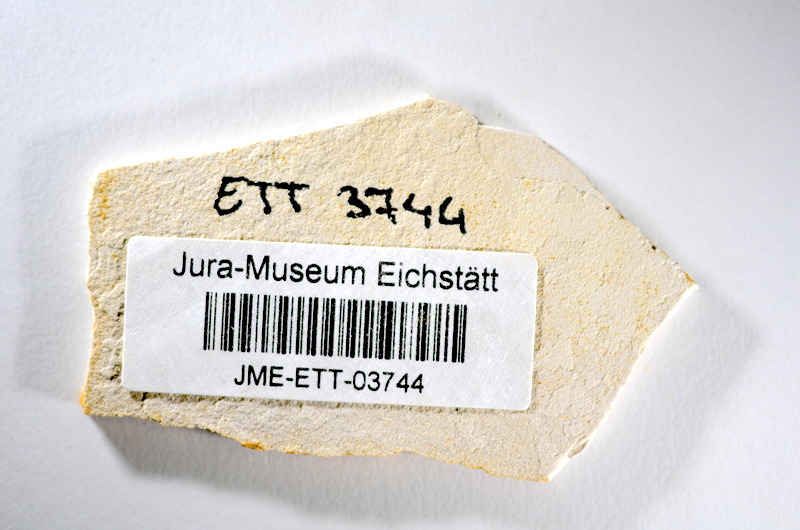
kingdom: Animalia
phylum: Chordata
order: Salmoniformes
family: Orthogonikleithridae
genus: Orthogonikleithrus
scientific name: Orthogonikleithrus hoelli
